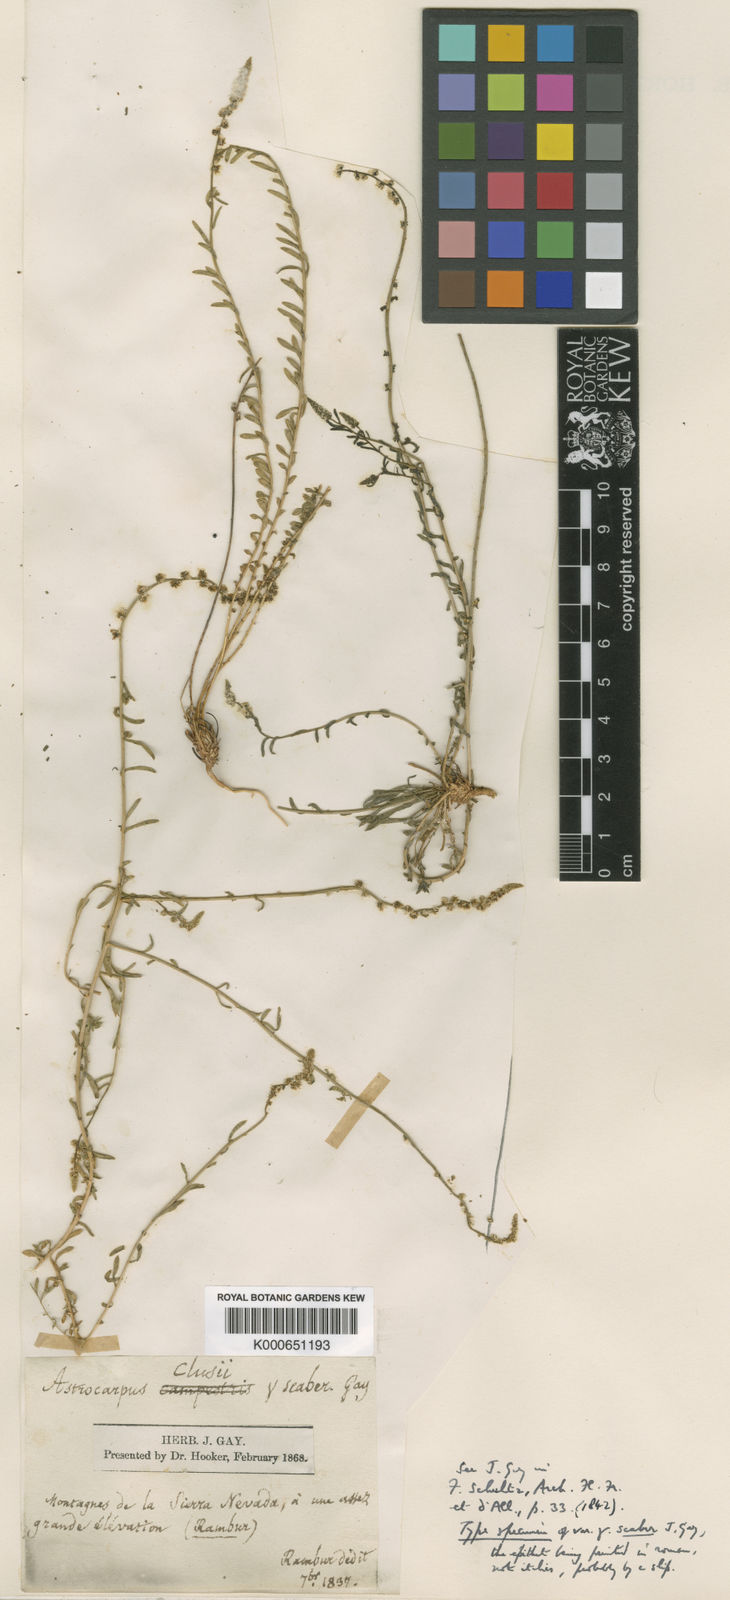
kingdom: Plantae
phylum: Tracheophyta
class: Magnoliopsida
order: Brassicales
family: Resedaceae
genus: Sesamoides
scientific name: Sesamoides
